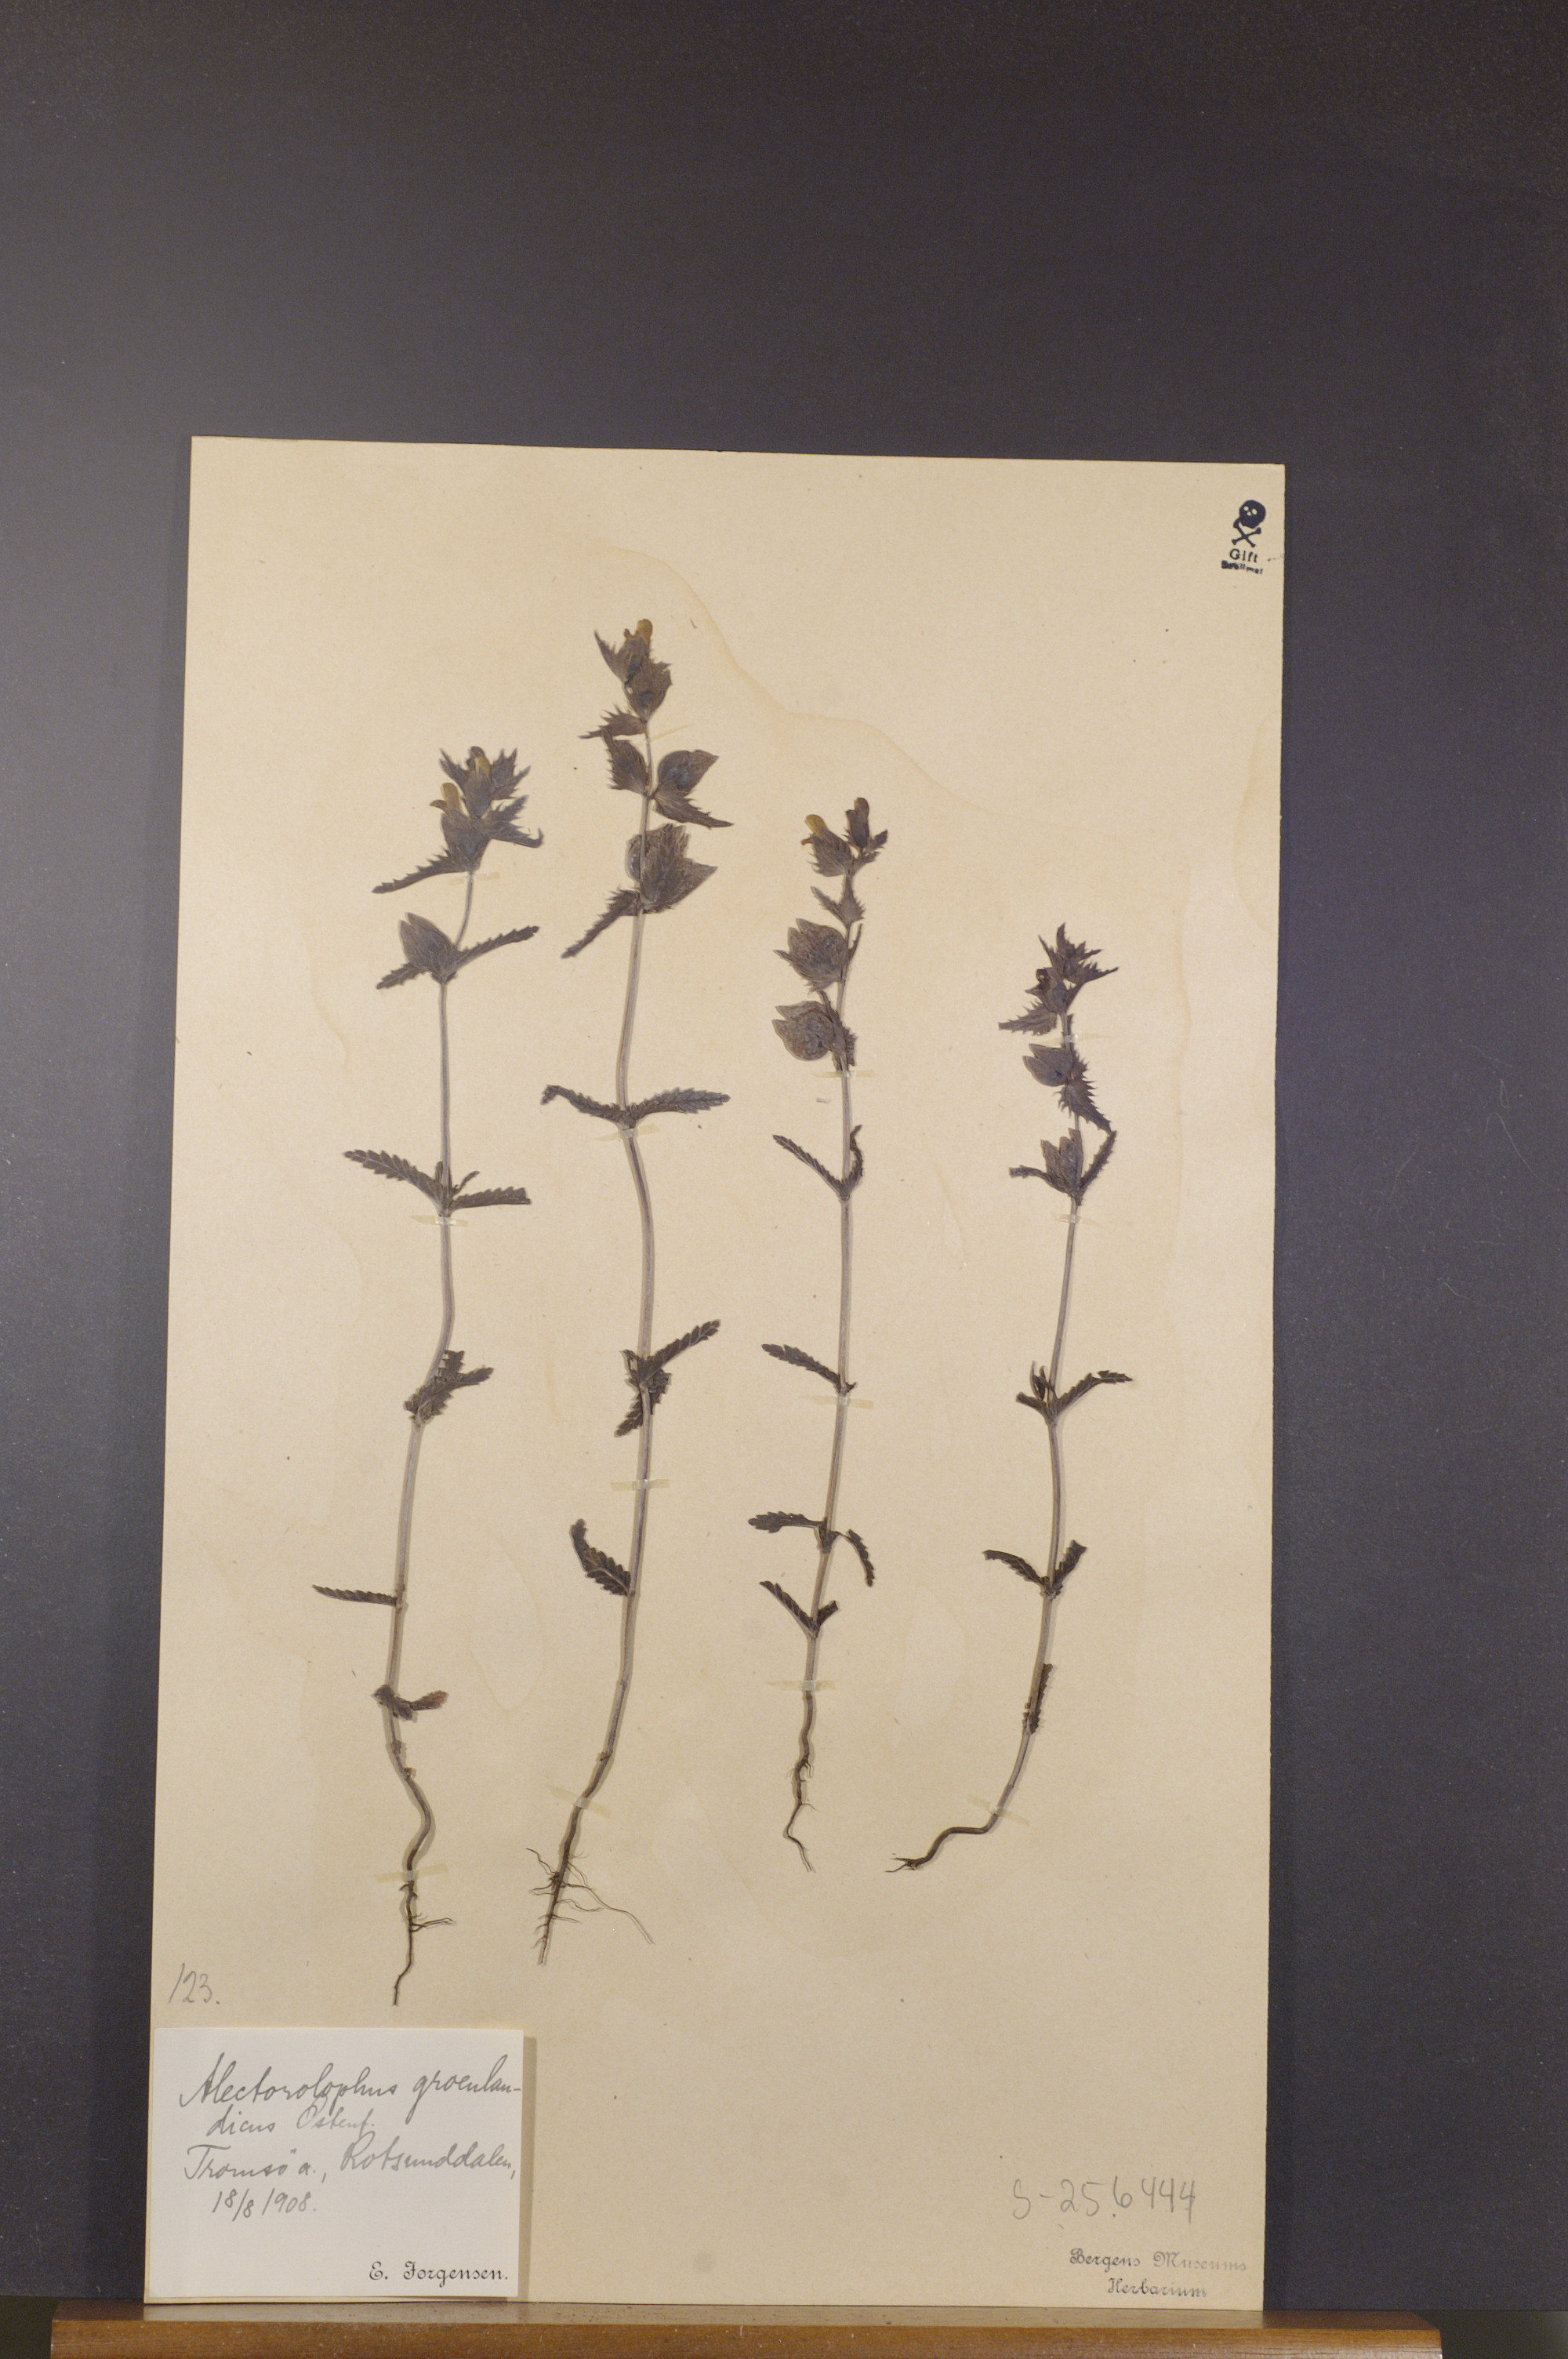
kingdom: Plantae
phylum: Tracheophyta
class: Magnoliopsida
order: Lamiales
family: Orobanchaceae
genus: Rhinanthus
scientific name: Rhinanthus groenlandicus
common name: Little yellow rattle
